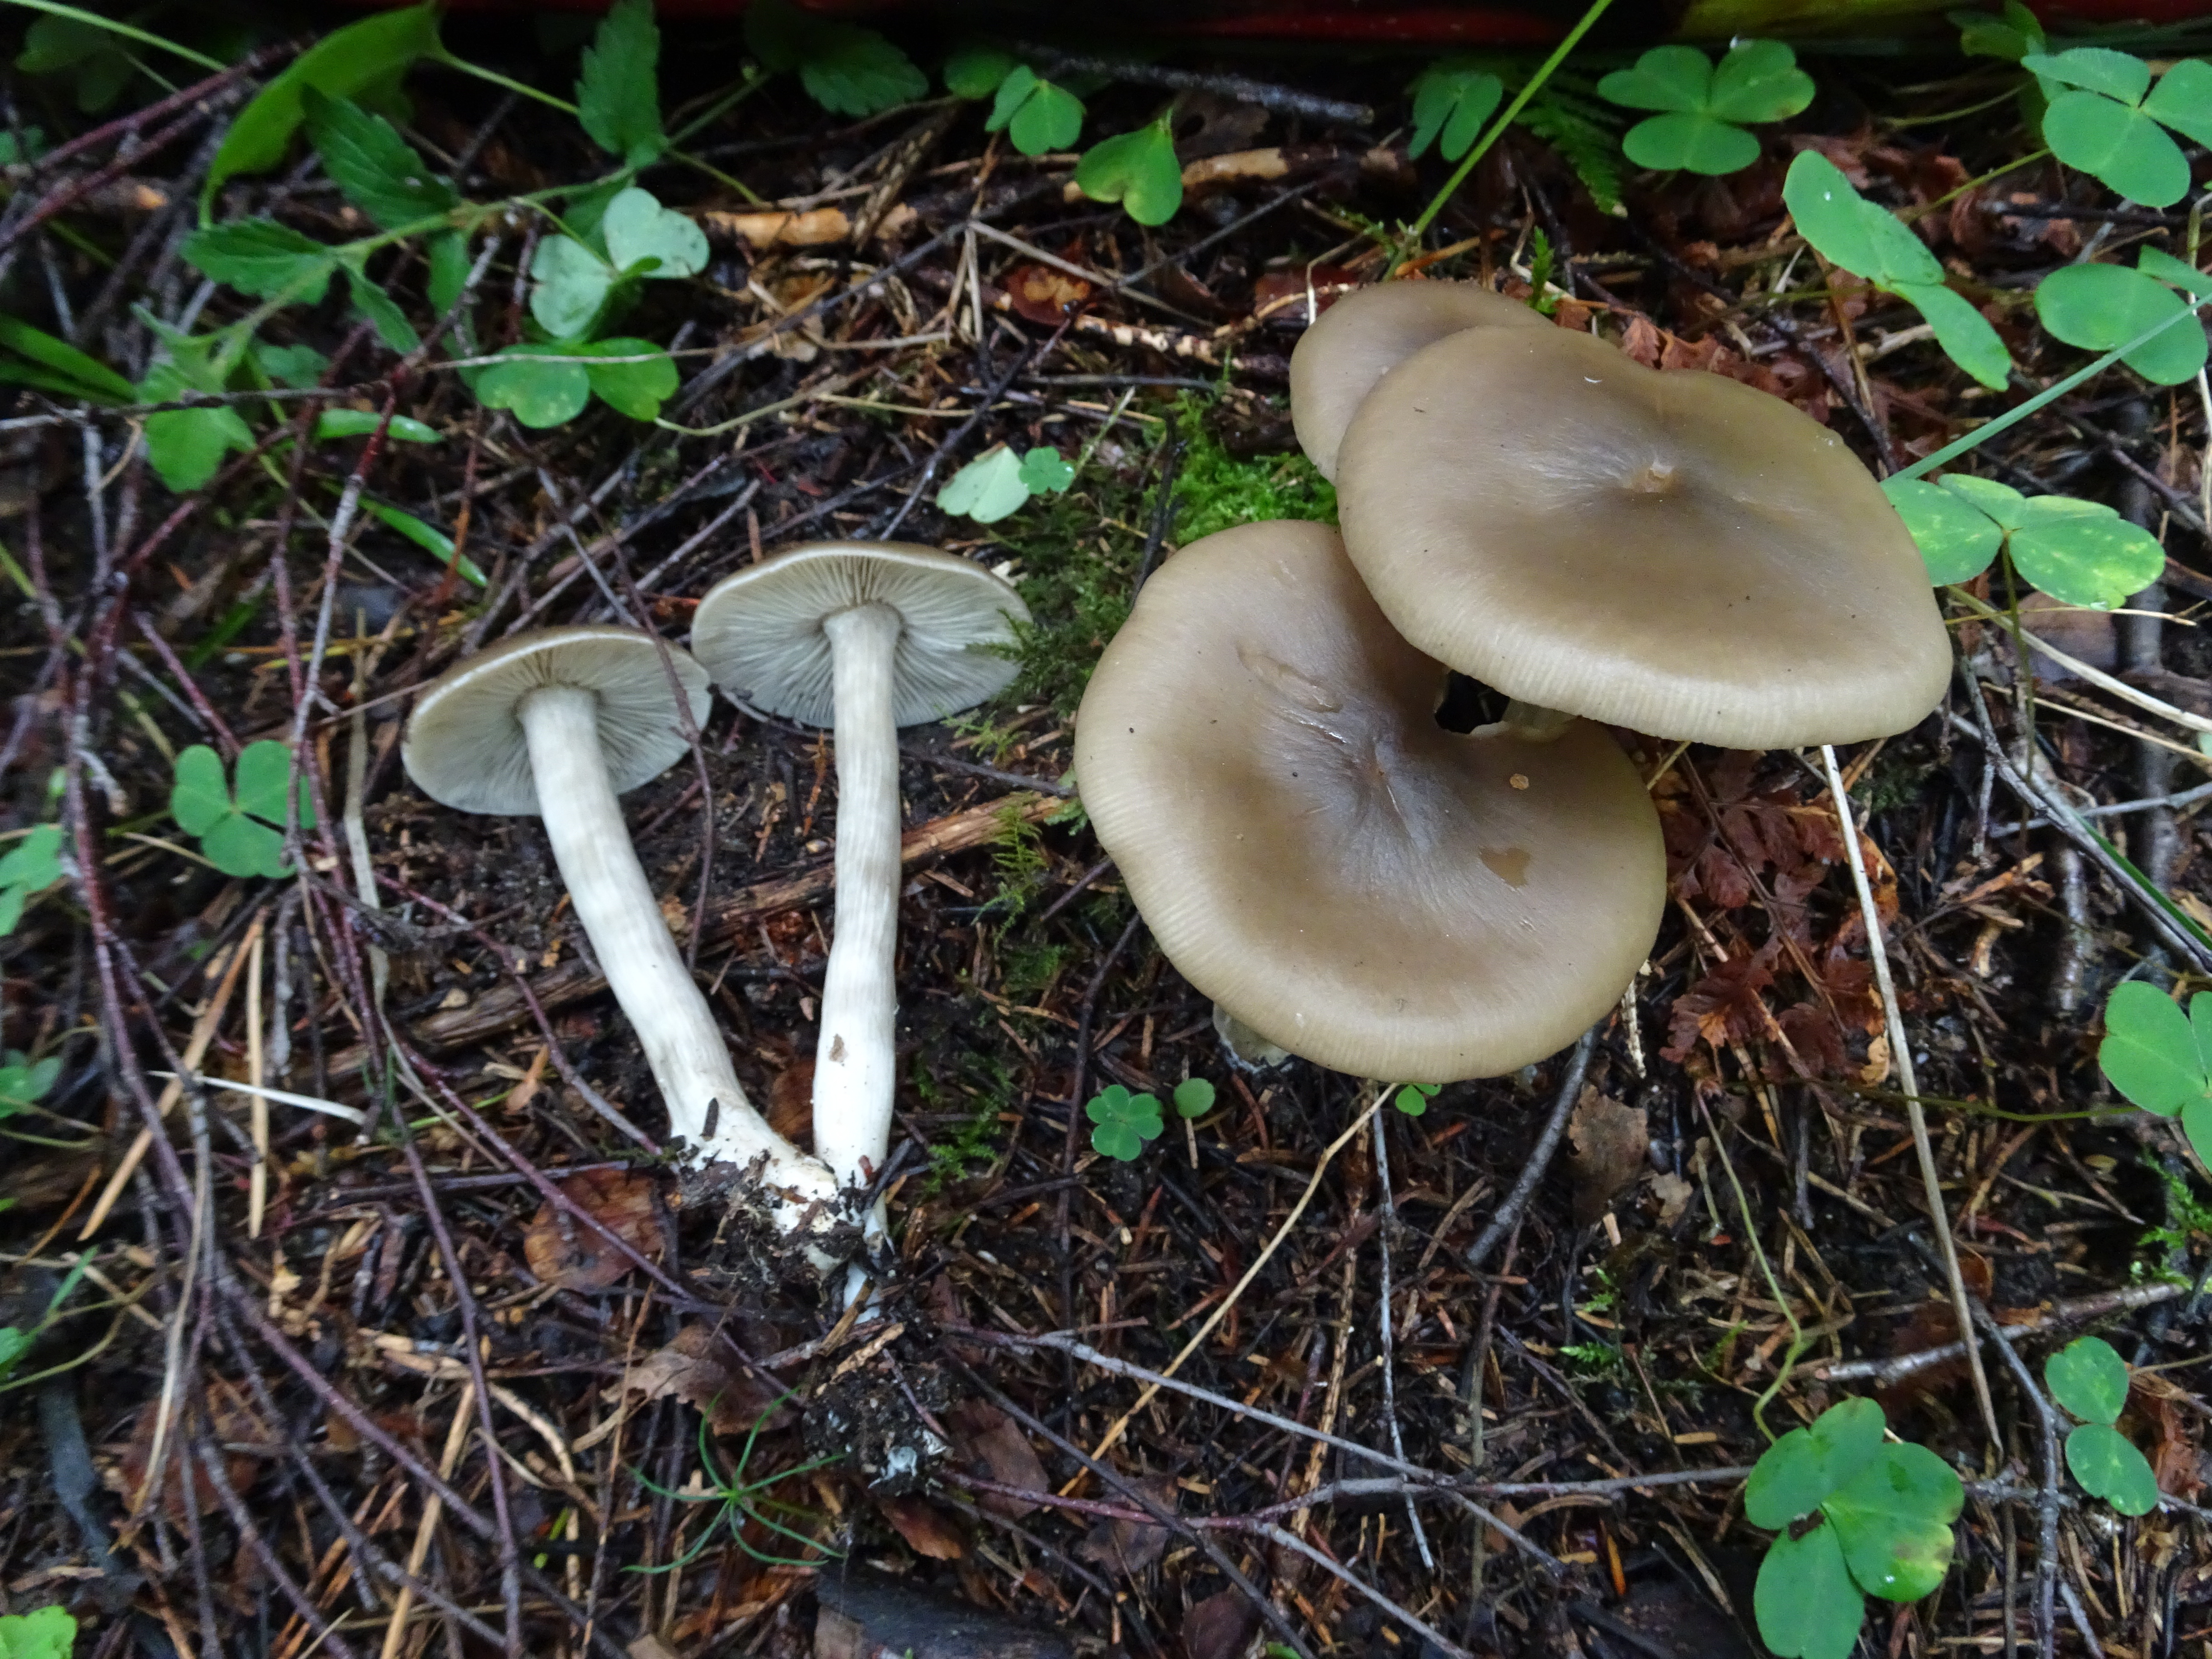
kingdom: Fungi
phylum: Basidiomycota
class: Agaricomycetes
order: Agaricales
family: Entolomataceae
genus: Entoloma
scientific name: Entoloma
